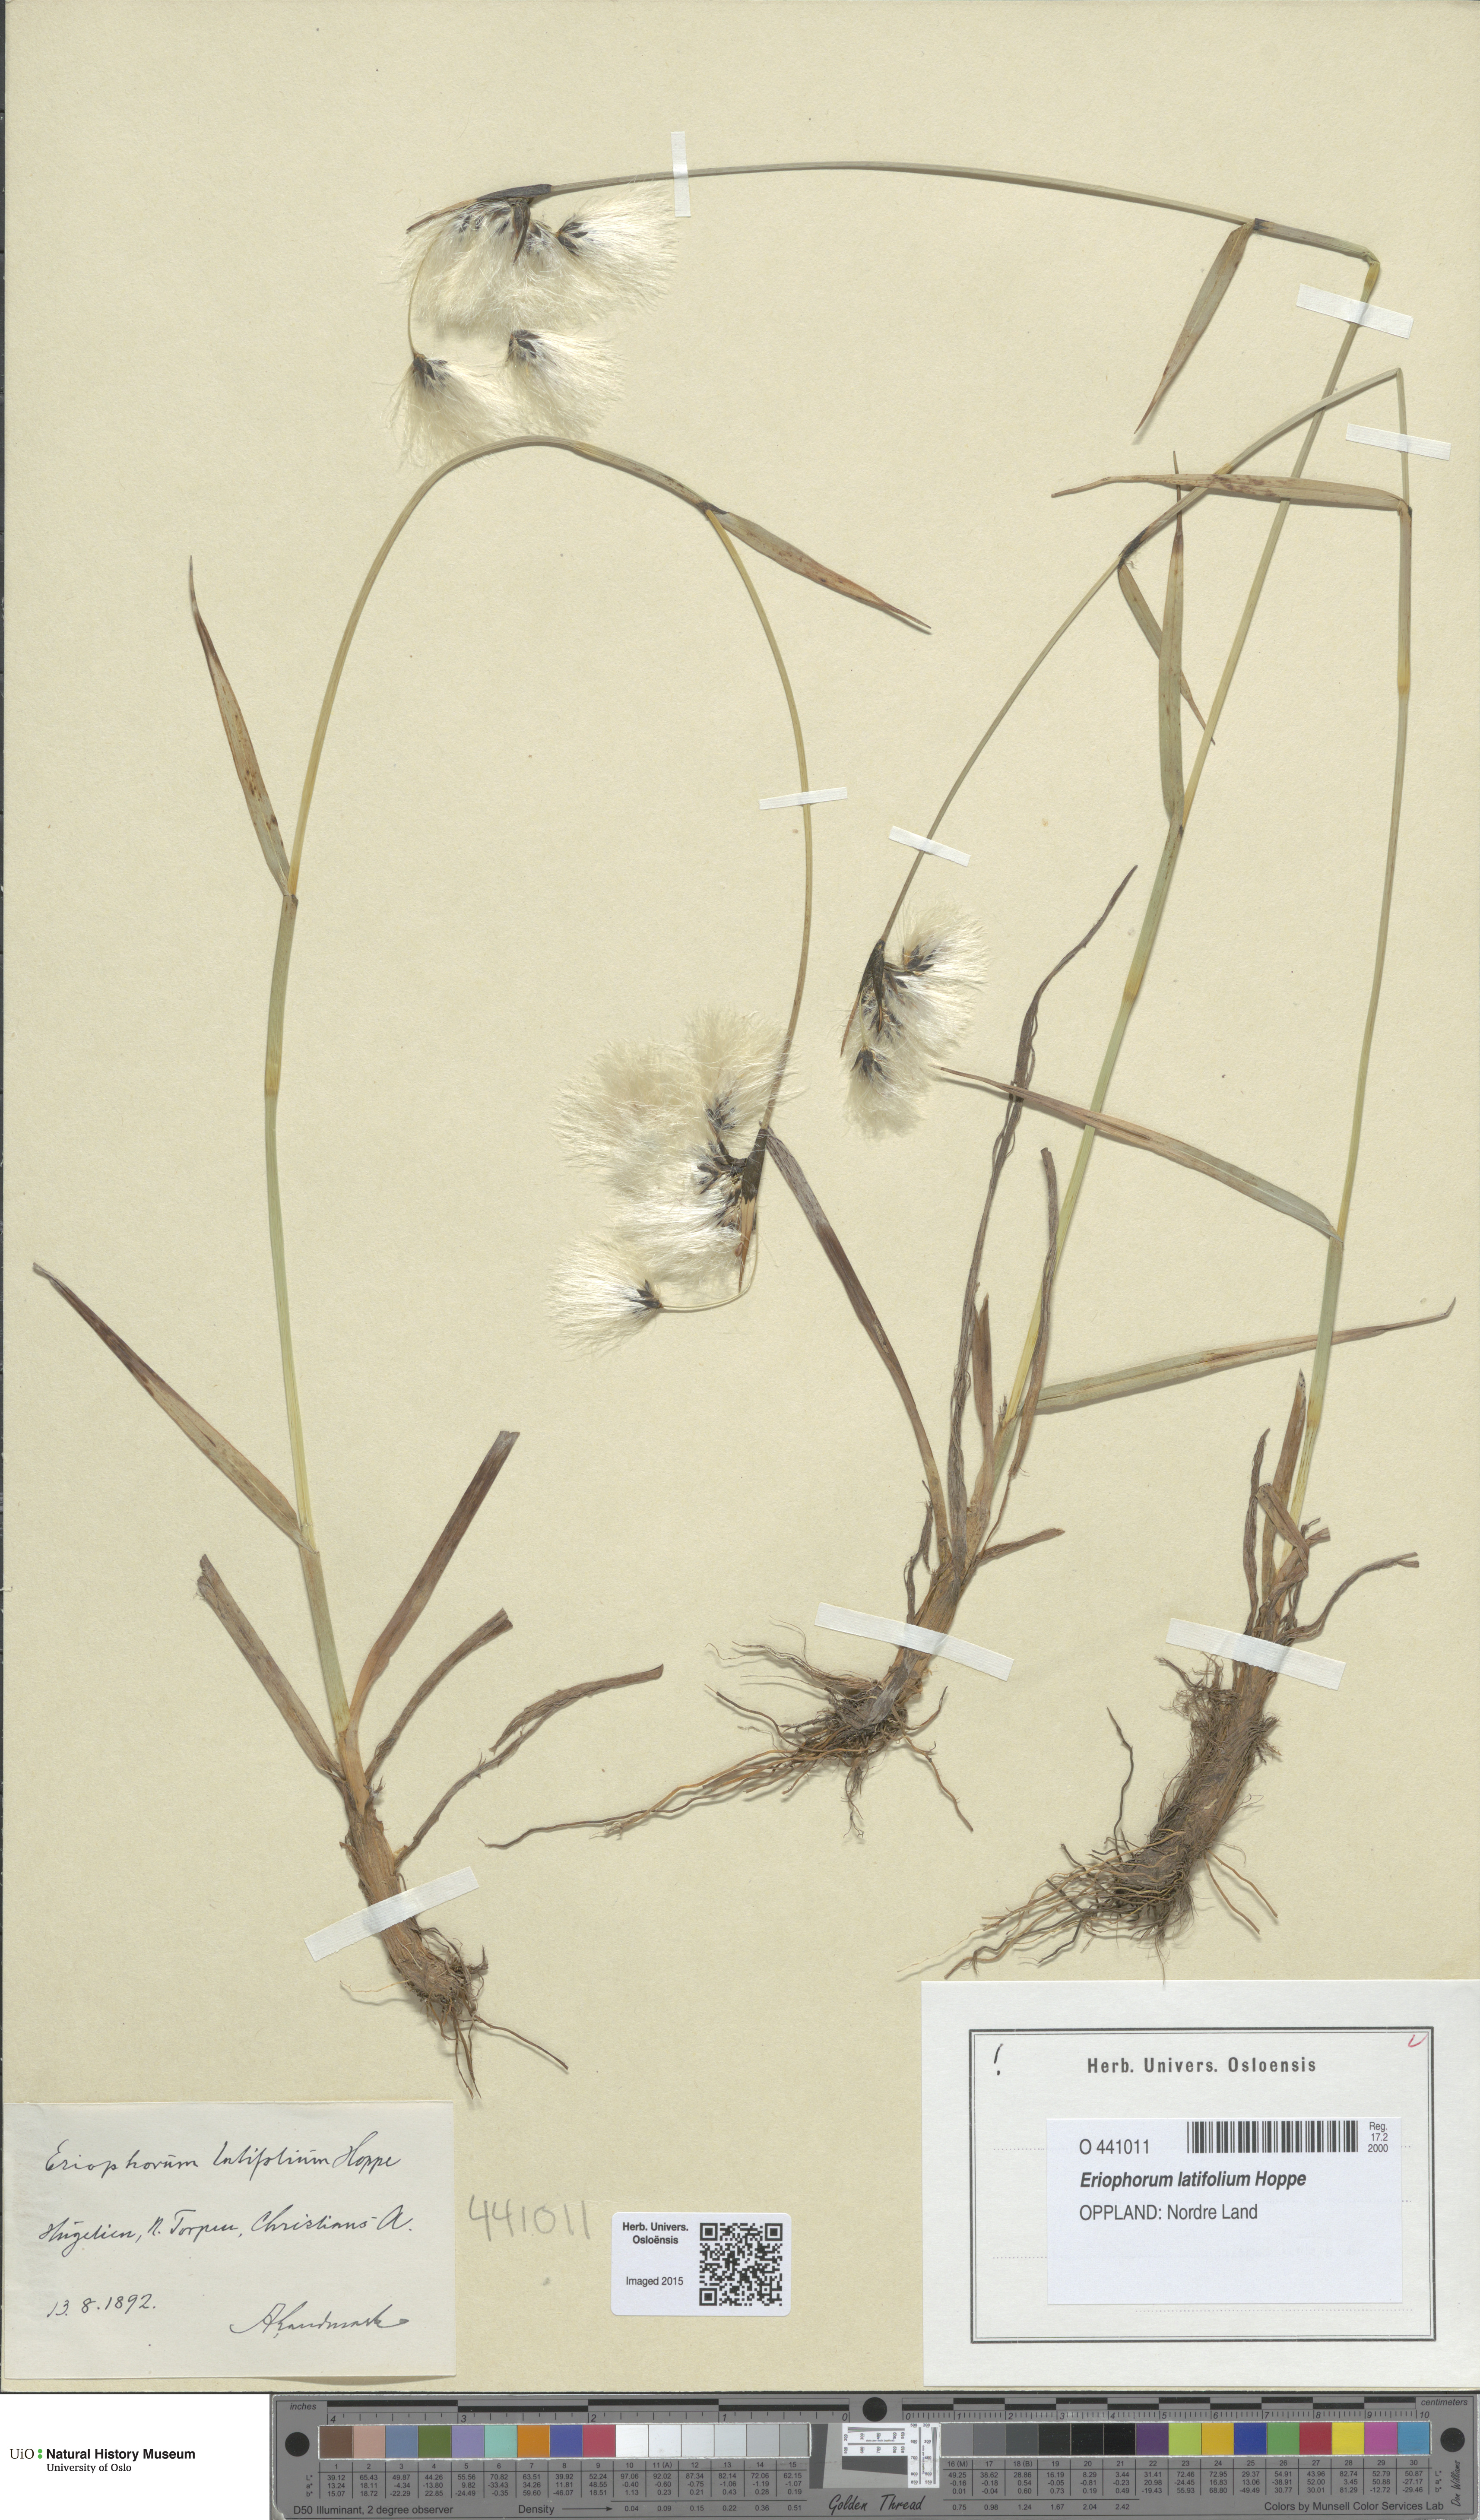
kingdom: Plantae
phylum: Tracheophyta
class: Liliopsida
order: Poales
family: Cyperaceae
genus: Eriophorum
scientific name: Eriophorum latifolium
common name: Broad-leaved cottongrass
